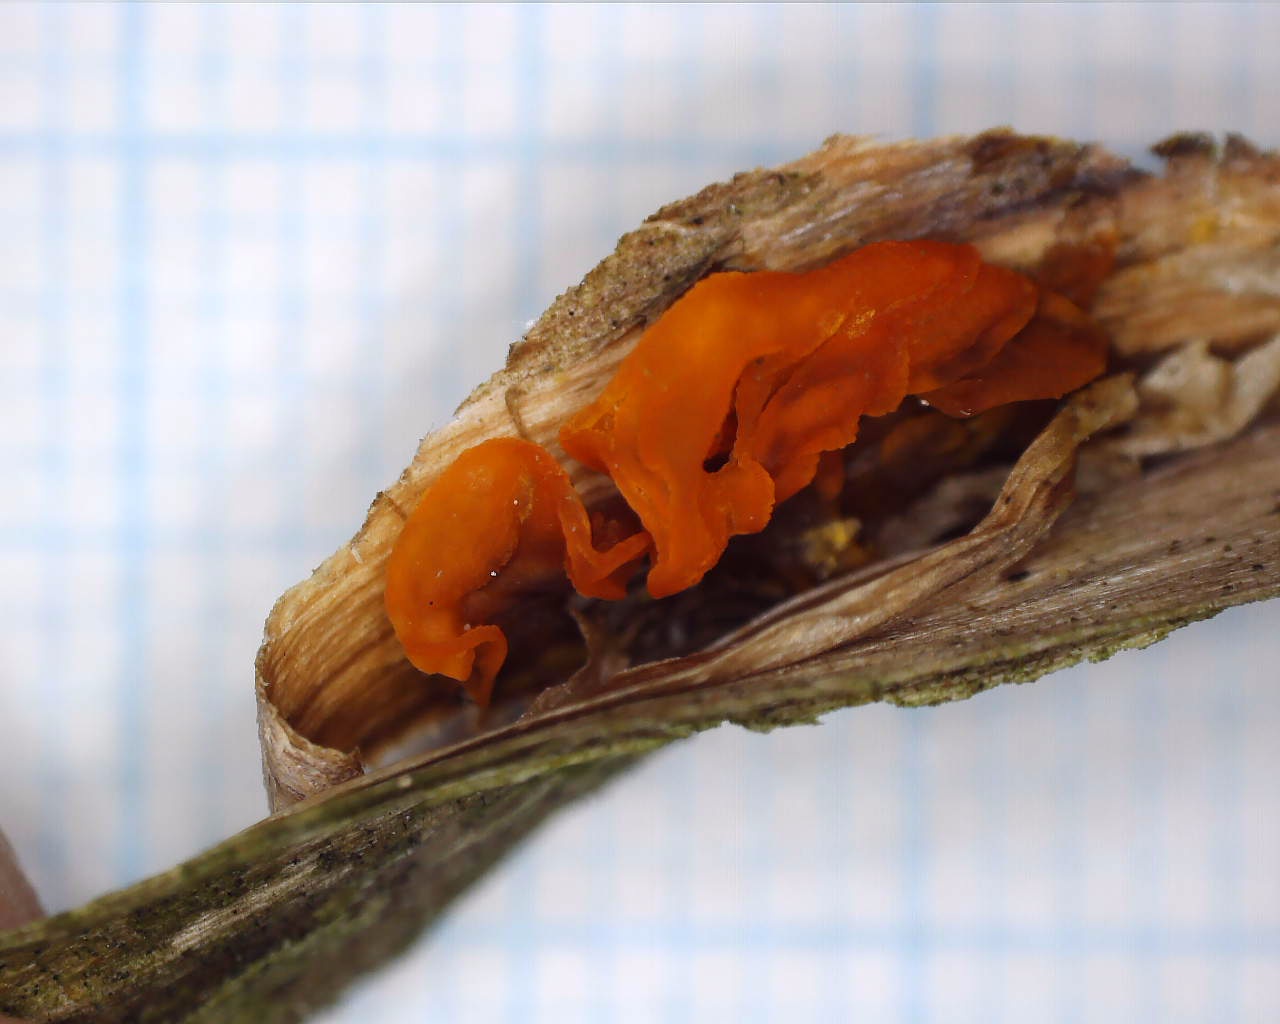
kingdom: Fungi
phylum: Basidiomycota
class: Tremellomycetes
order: Tremellales
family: Tremellaceae
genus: Tremella
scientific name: Tremella mesenterica
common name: gul bævresvamp
